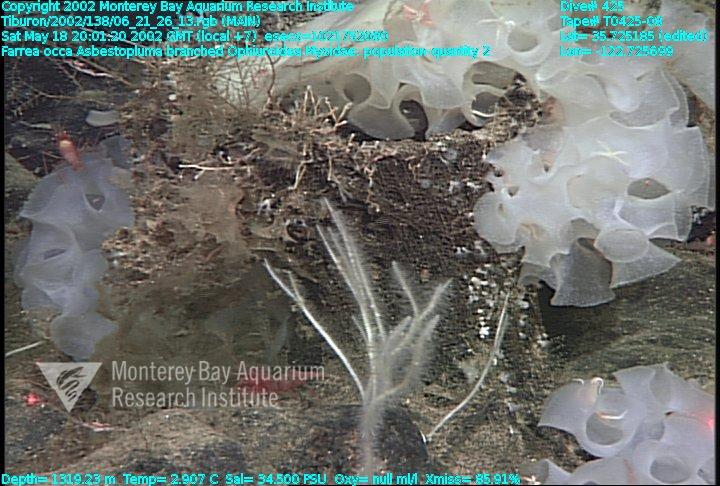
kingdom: Animalia
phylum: Porifera
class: Demospongiae
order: Poecilosclerida
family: Cladorhizidae
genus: Asbestopluma
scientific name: Asbestopluma monticola
